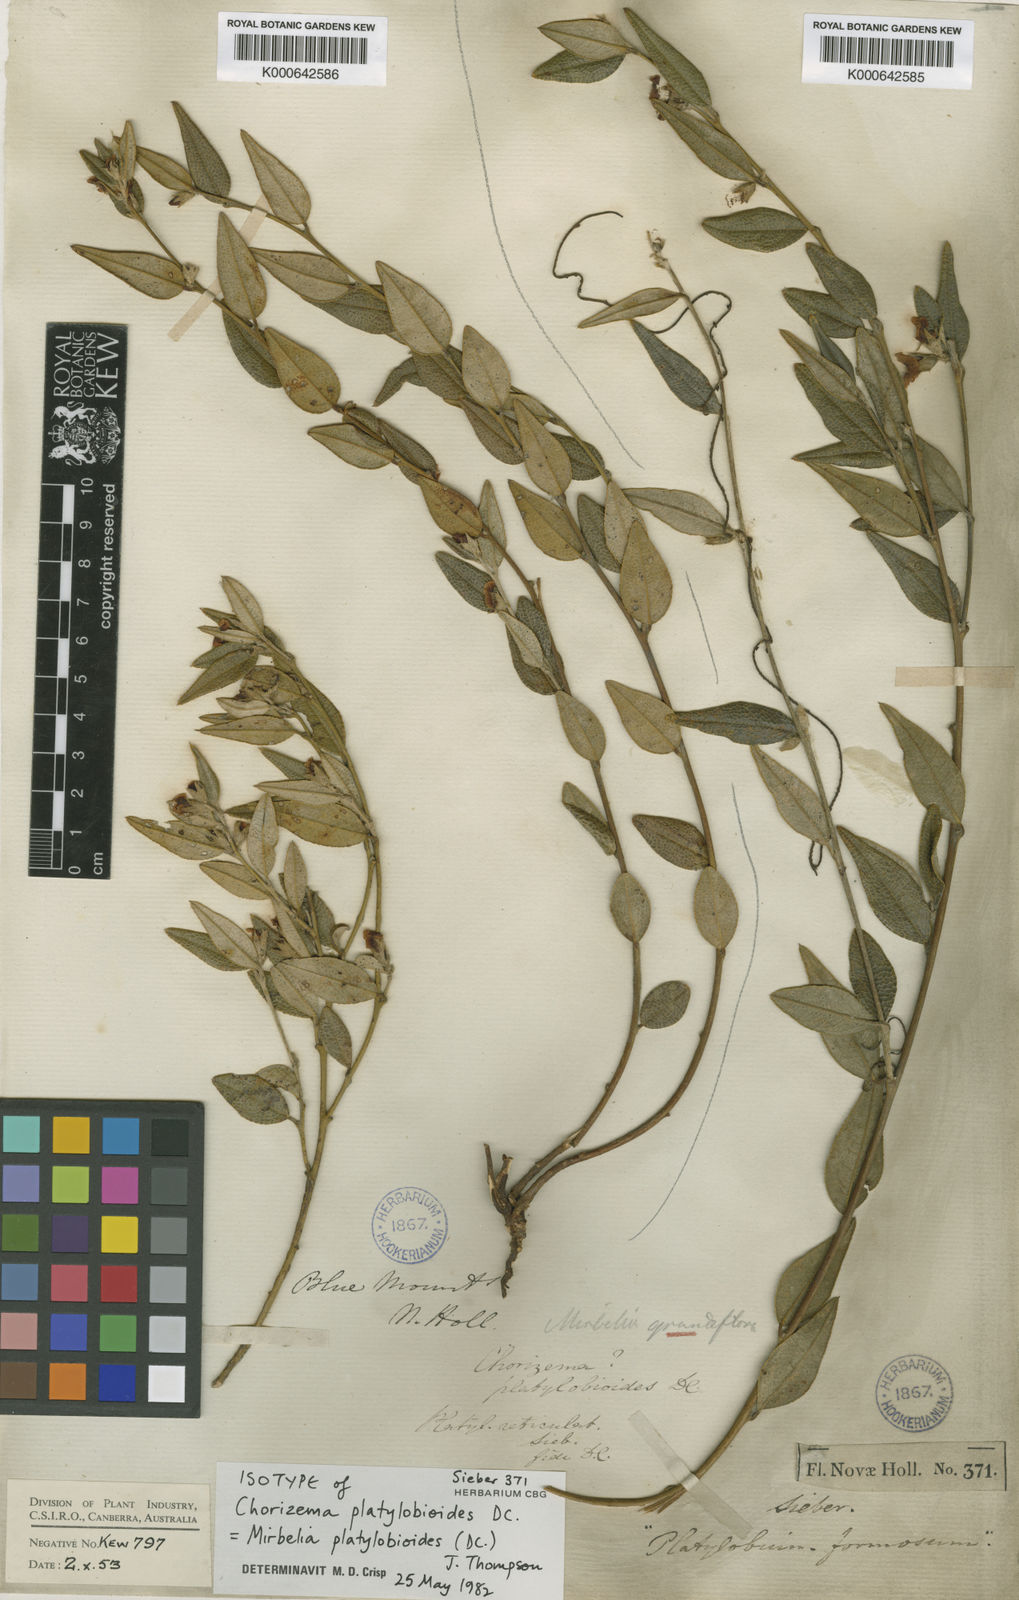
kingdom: Plantae
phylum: Tracheophyta
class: Magnoliopsida
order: Fabales
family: Fabaceae
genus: Mirbelia
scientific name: Mirbelia platylobioides
